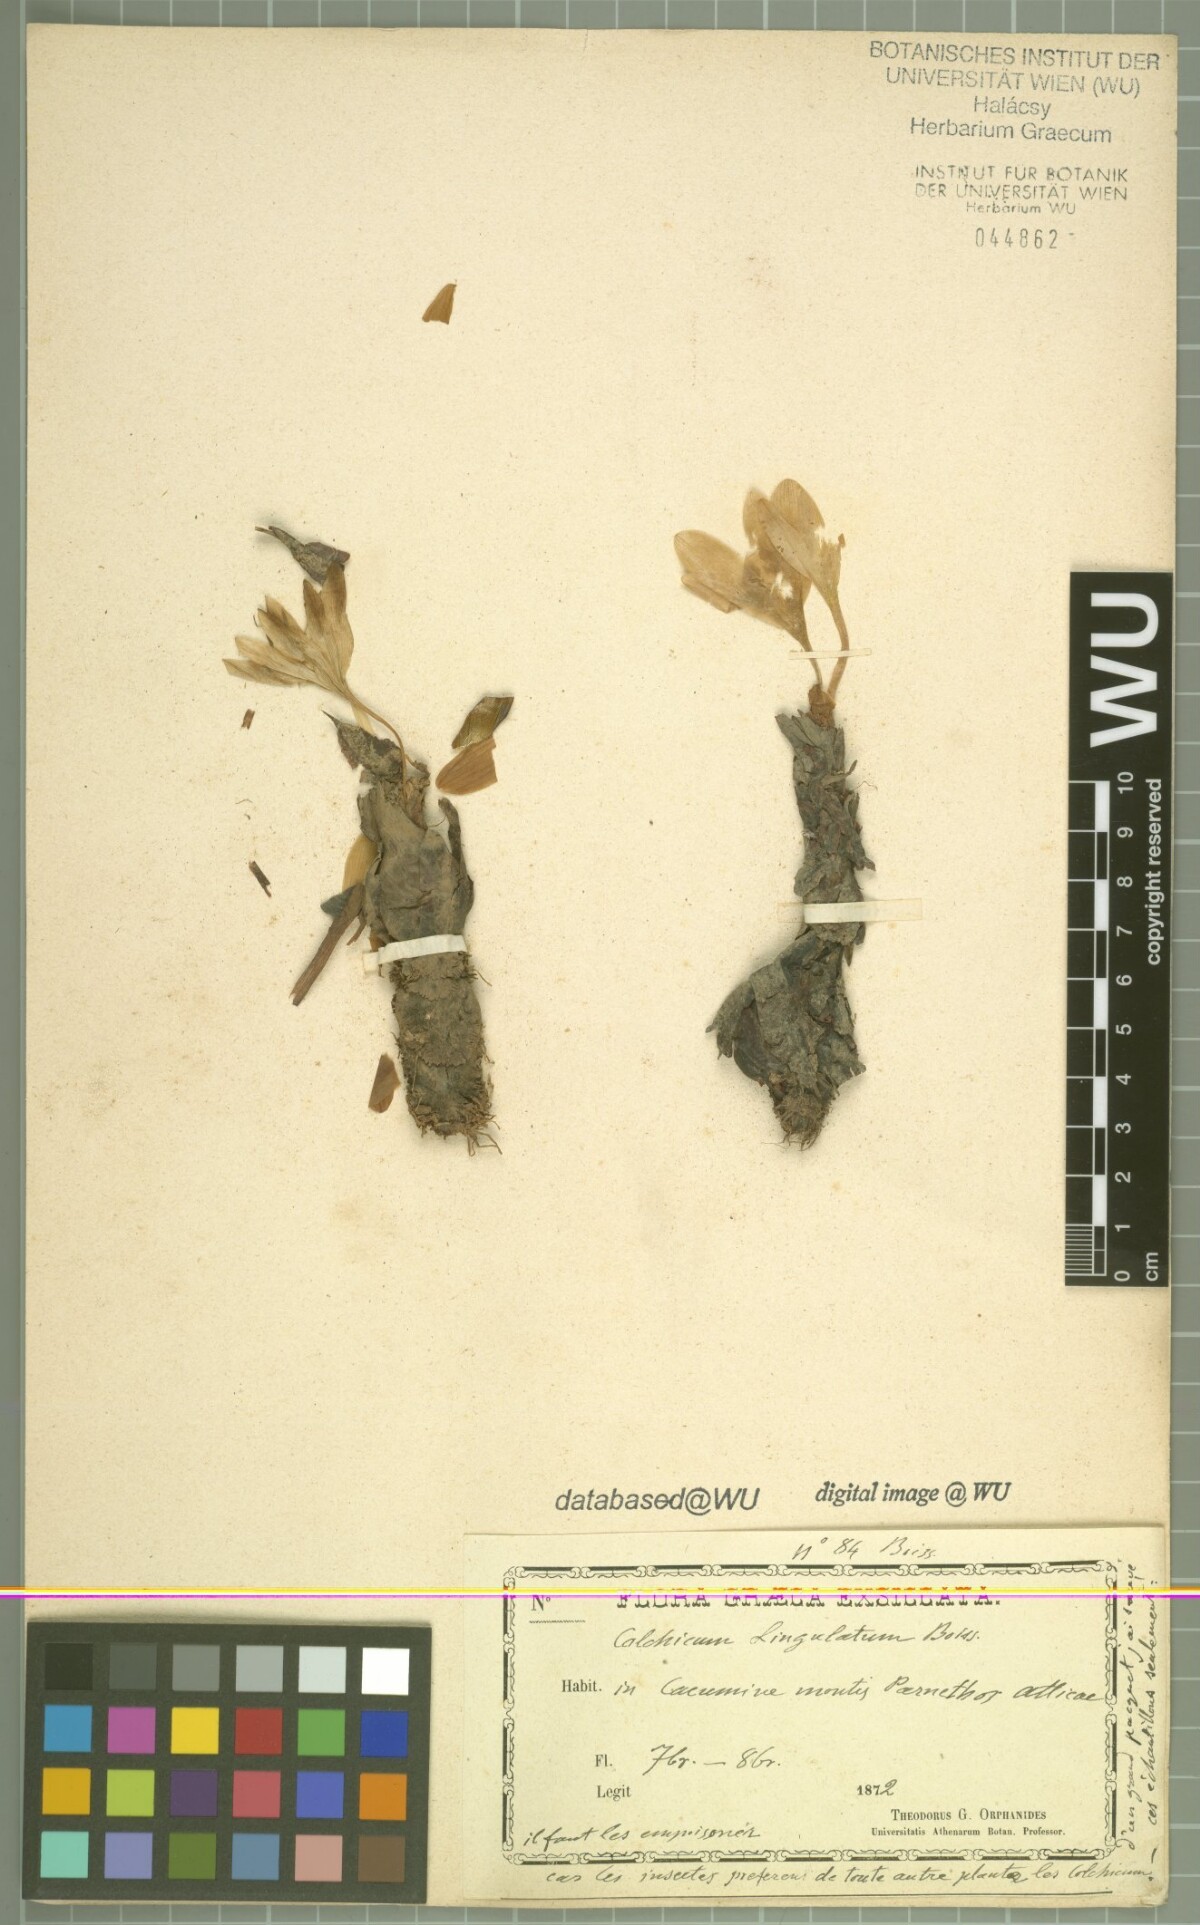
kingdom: Plantae
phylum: Tracheophyta
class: Liliopsida
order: Liliales
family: Colchicaceae
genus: Colchicum
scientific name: Colchicum lingulatum
